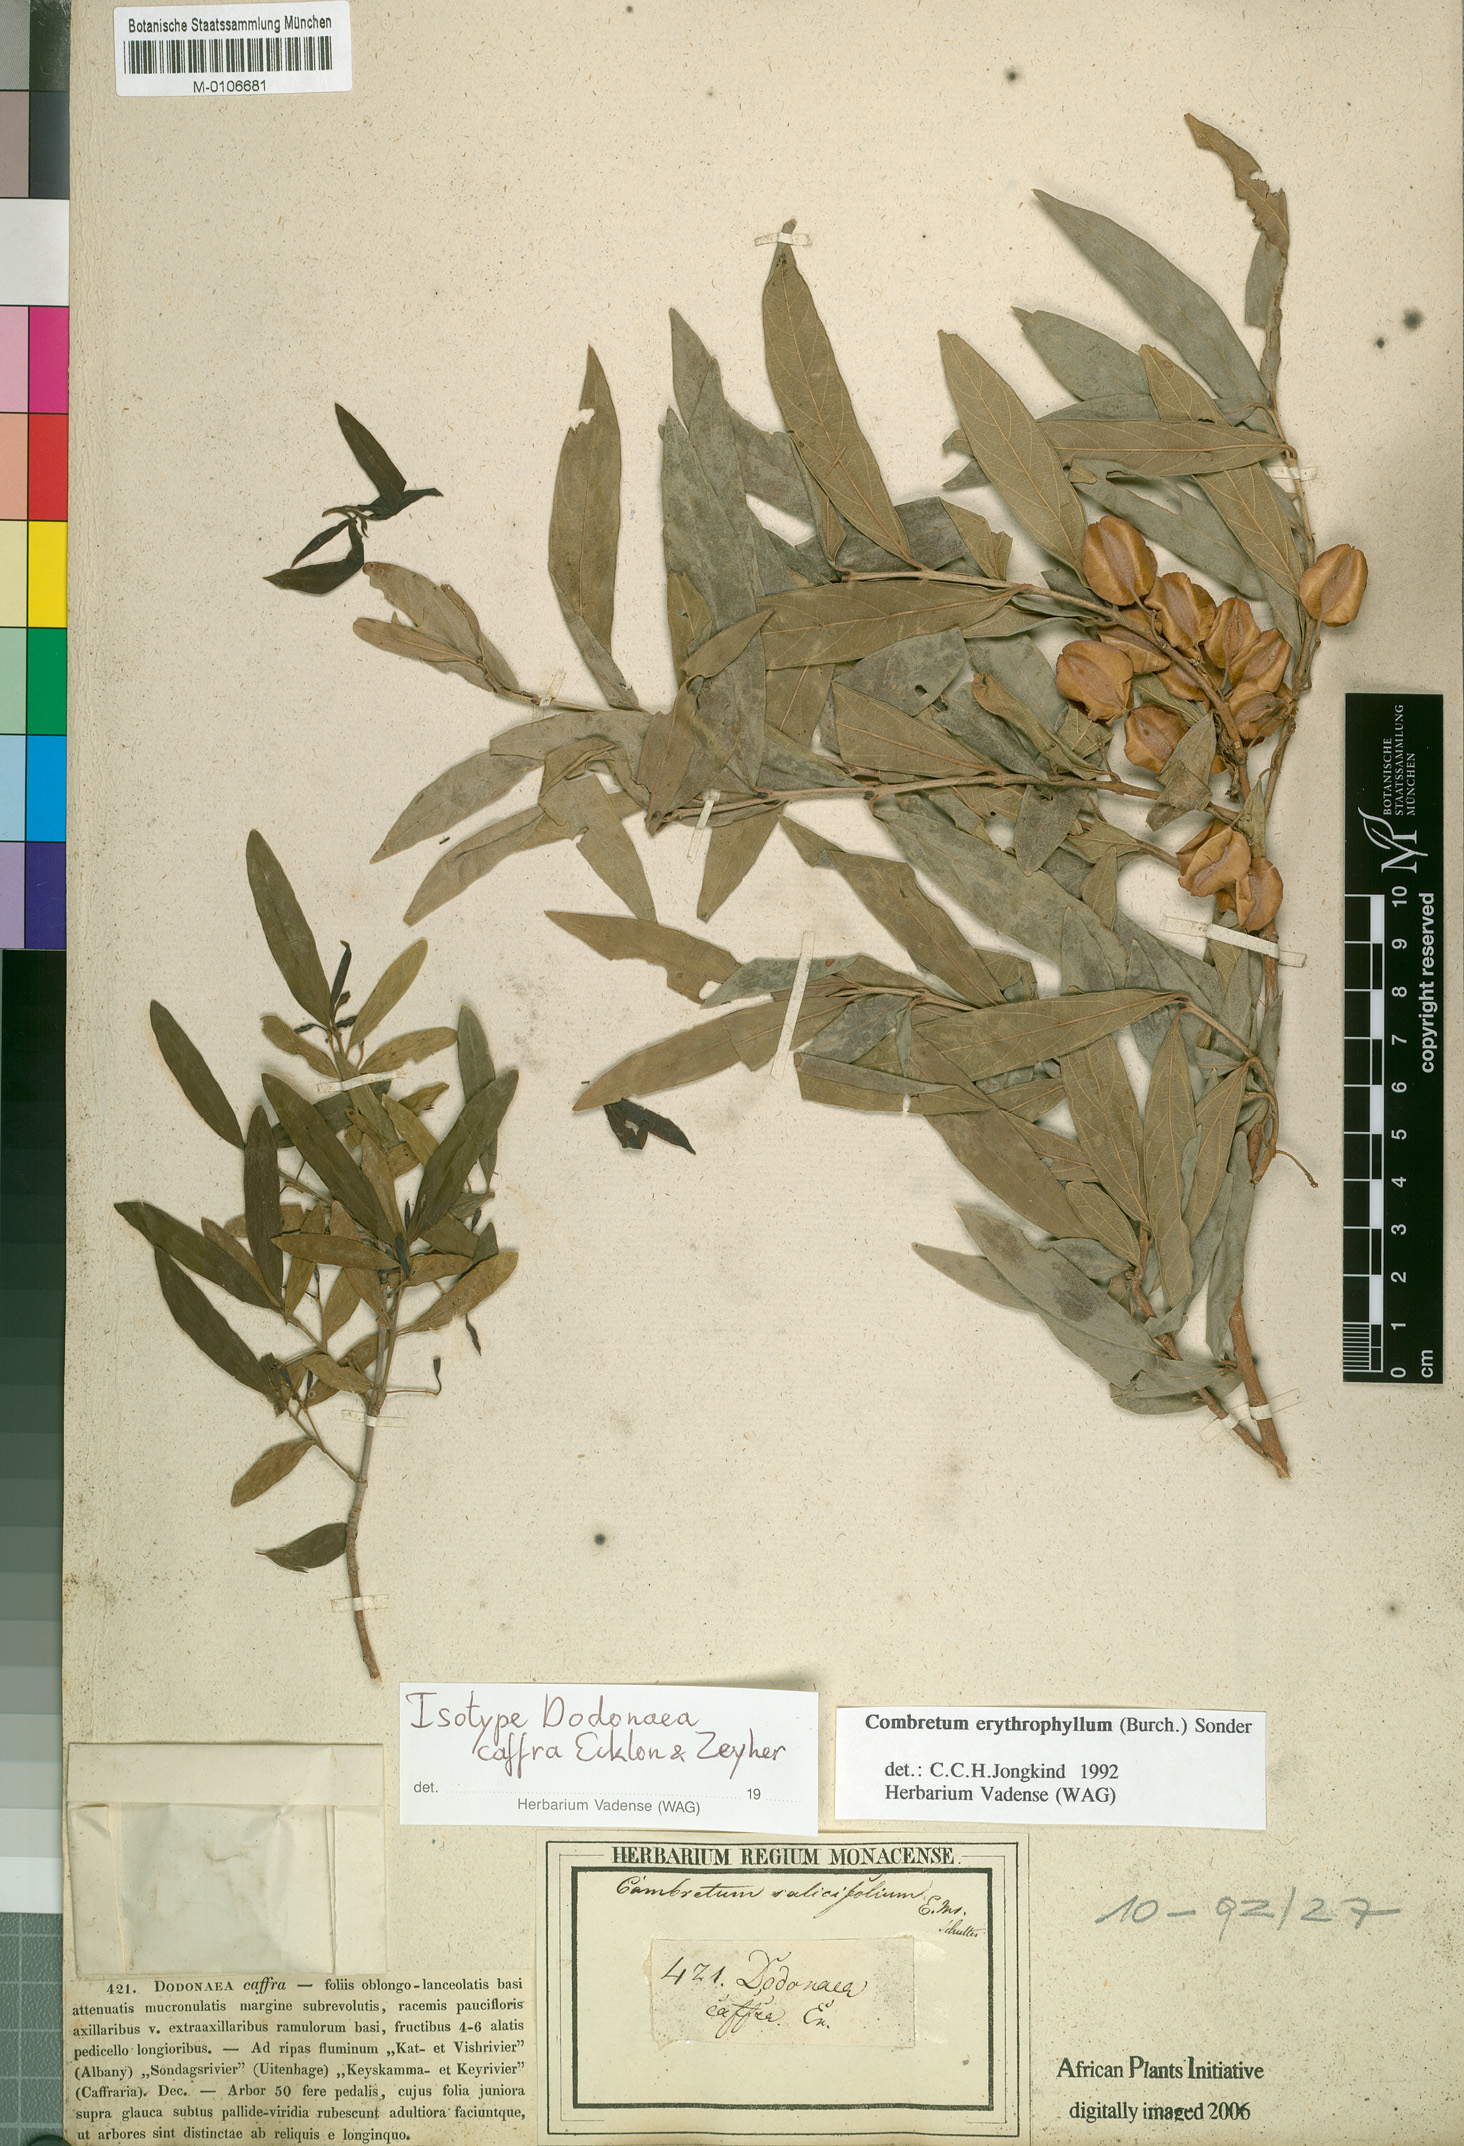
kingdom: Plantae
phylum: Tracheophyta
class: Magnoliopsida
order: Myrtales
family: Combretaceae
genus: Combretum
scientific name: Combretum erythrophyllum
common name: Bush-willow
